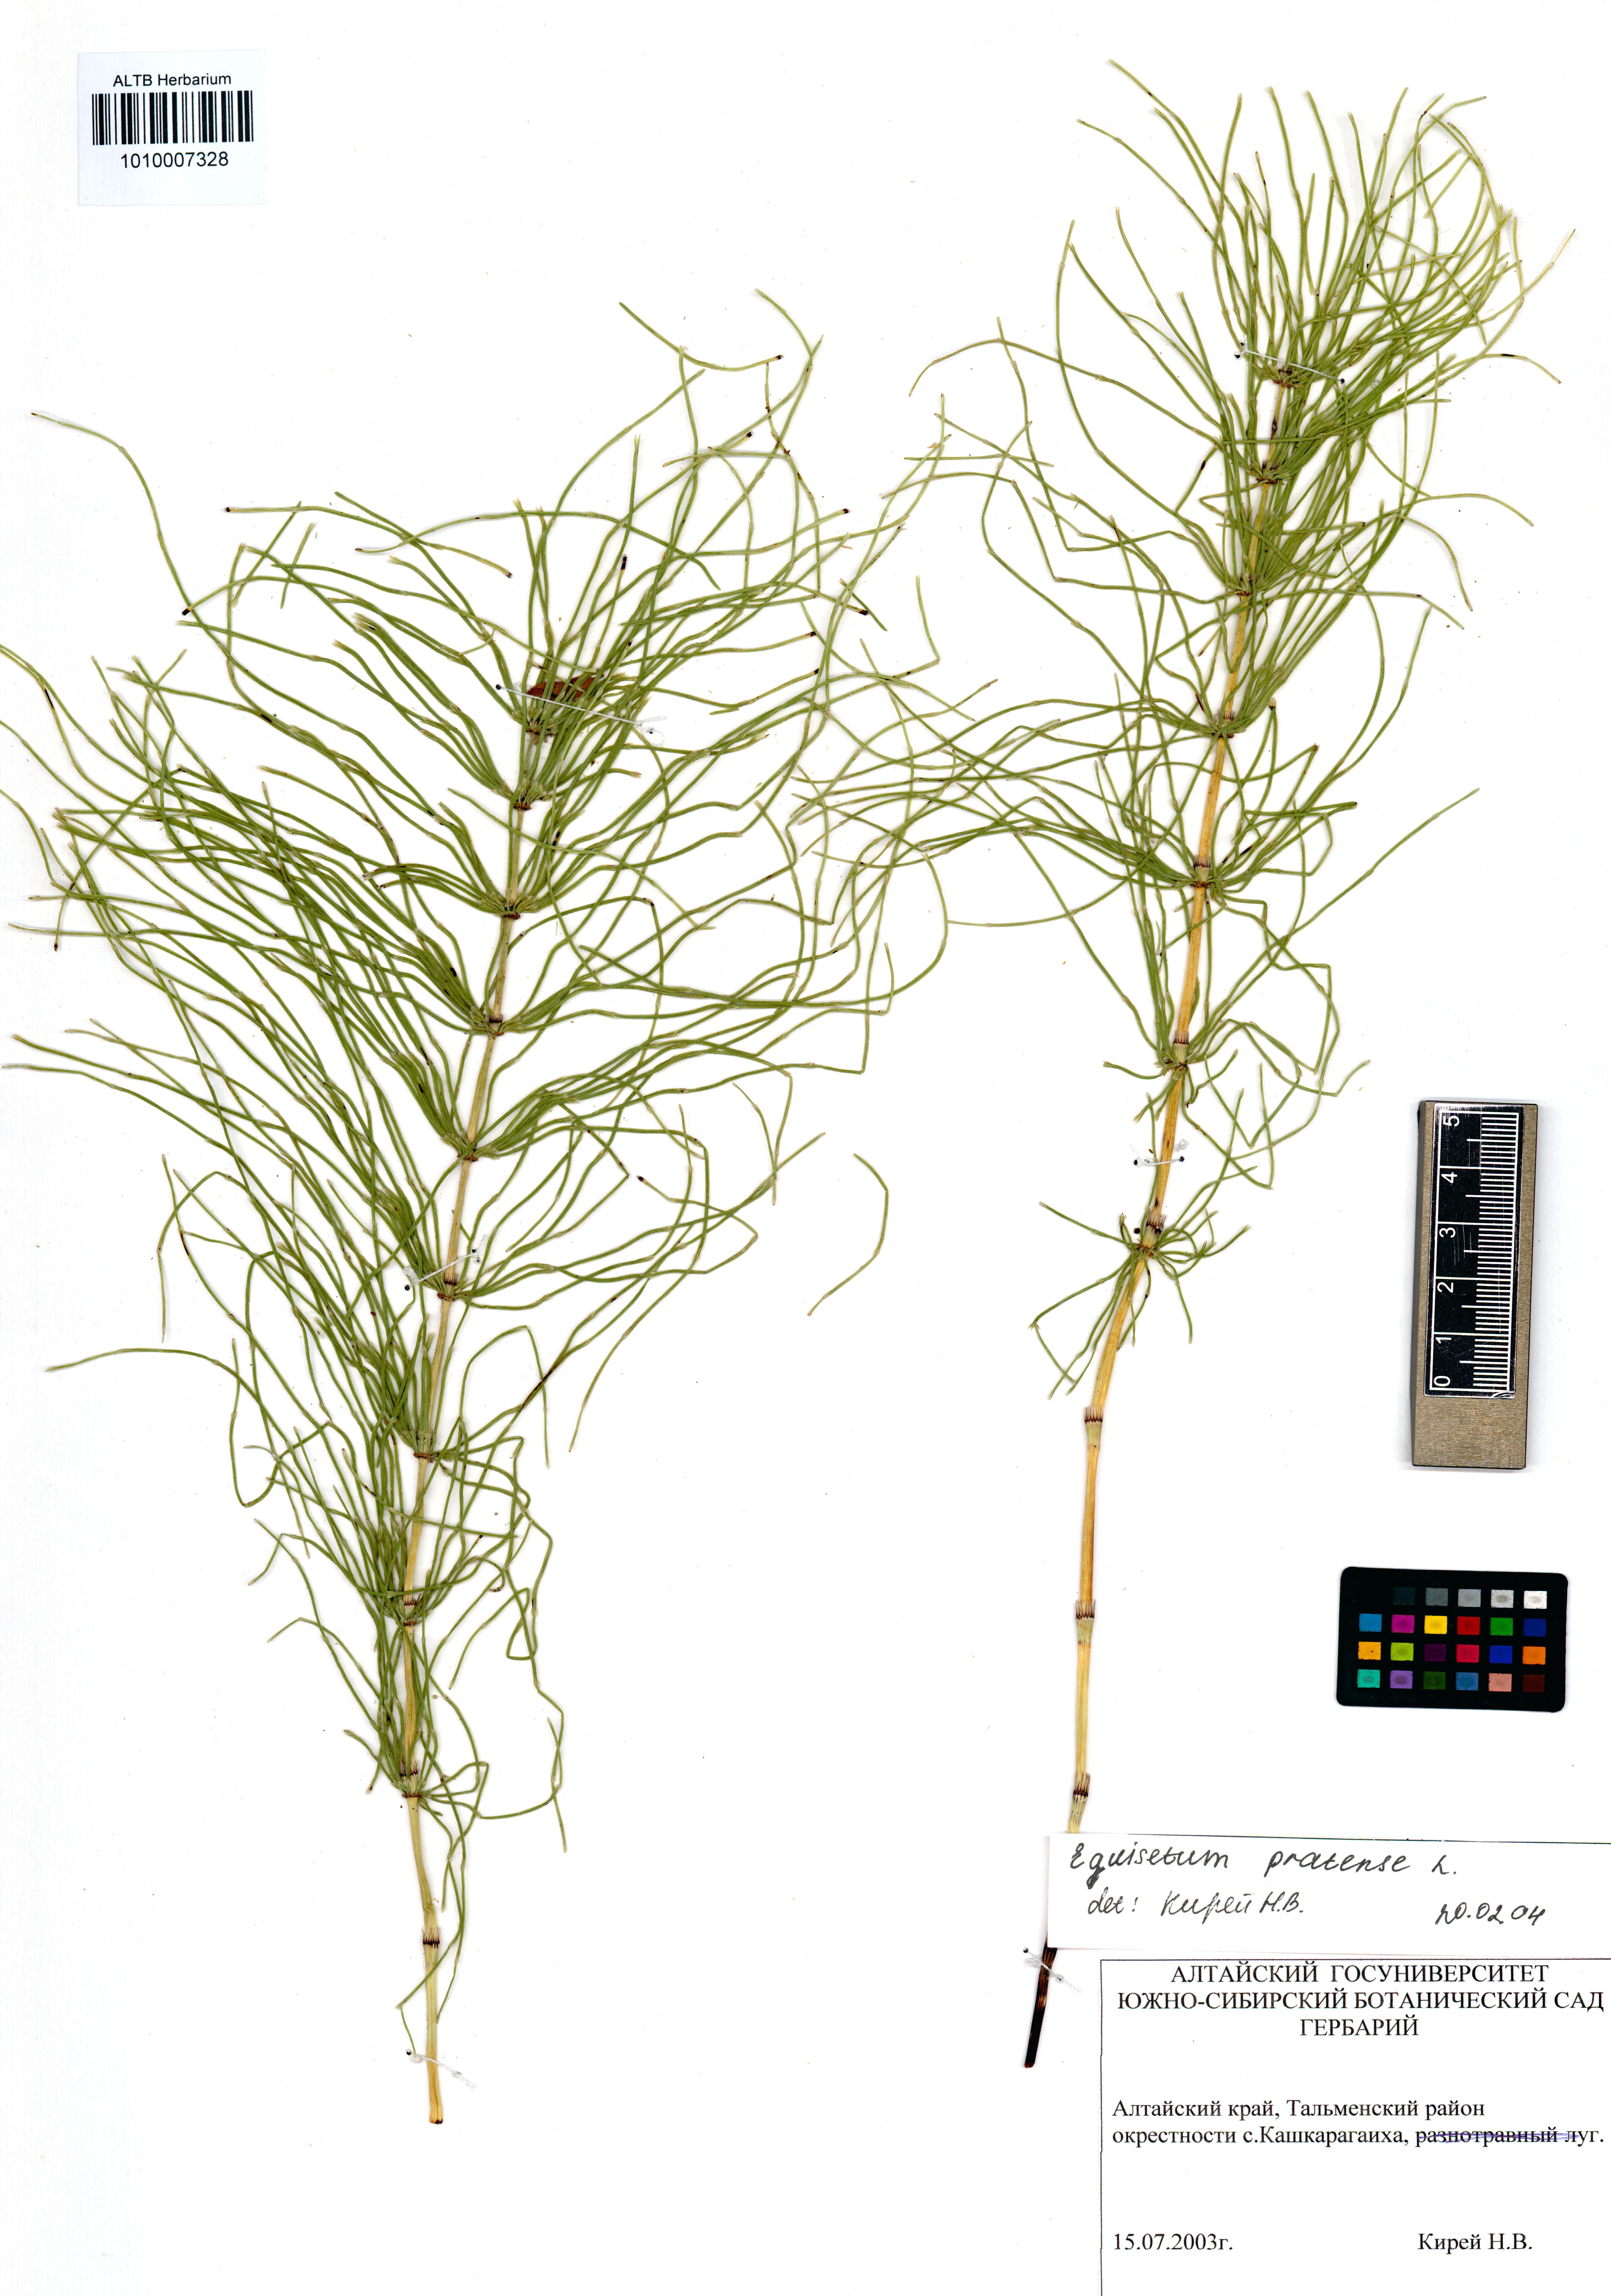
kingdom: Plantae
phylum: Tracheophyta
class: Polypodiopsida
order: Equisetales
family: Equisetaceae
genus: Equisetum
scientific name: Equisetum pratense
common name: Meadow horsetail
